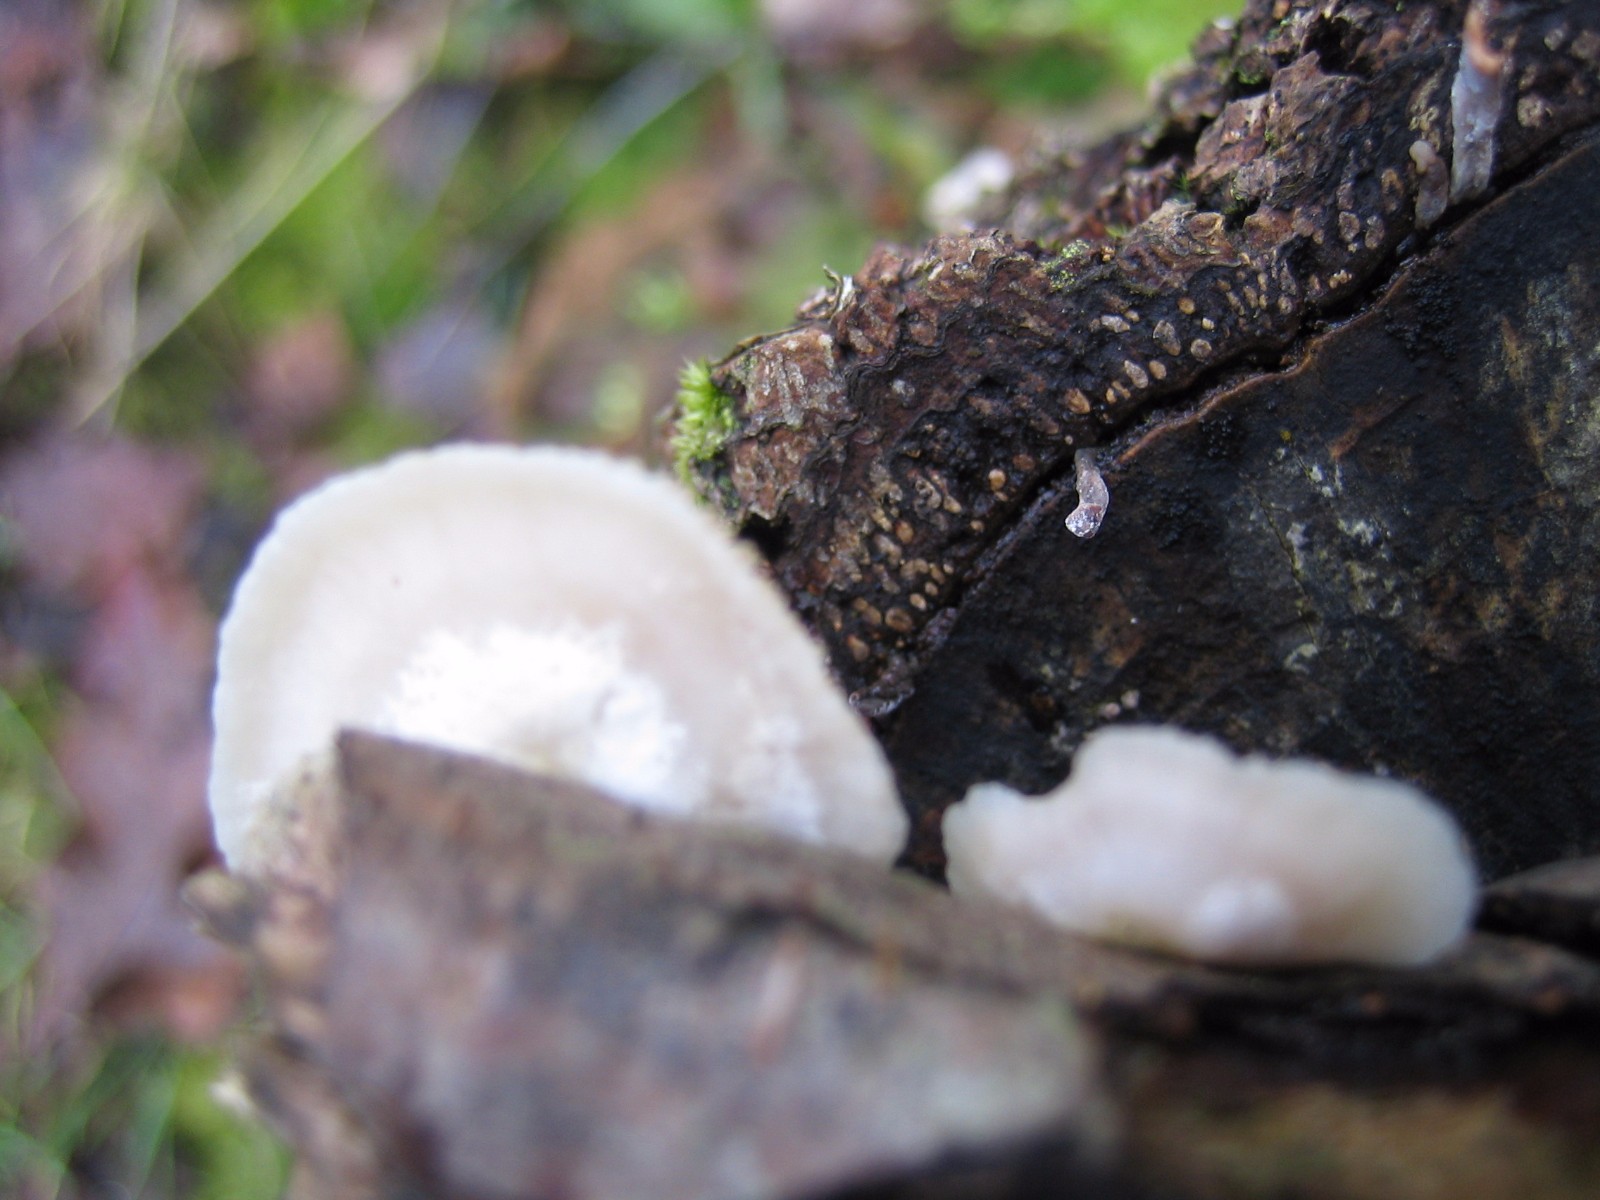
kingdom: Fungi
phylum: Basidiomycota
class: Agaricomycetes
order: Agaricales
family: Crepidotaceae
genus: Crepidotus
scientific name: Crepidotus mollis
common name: blød muslingesvamp
